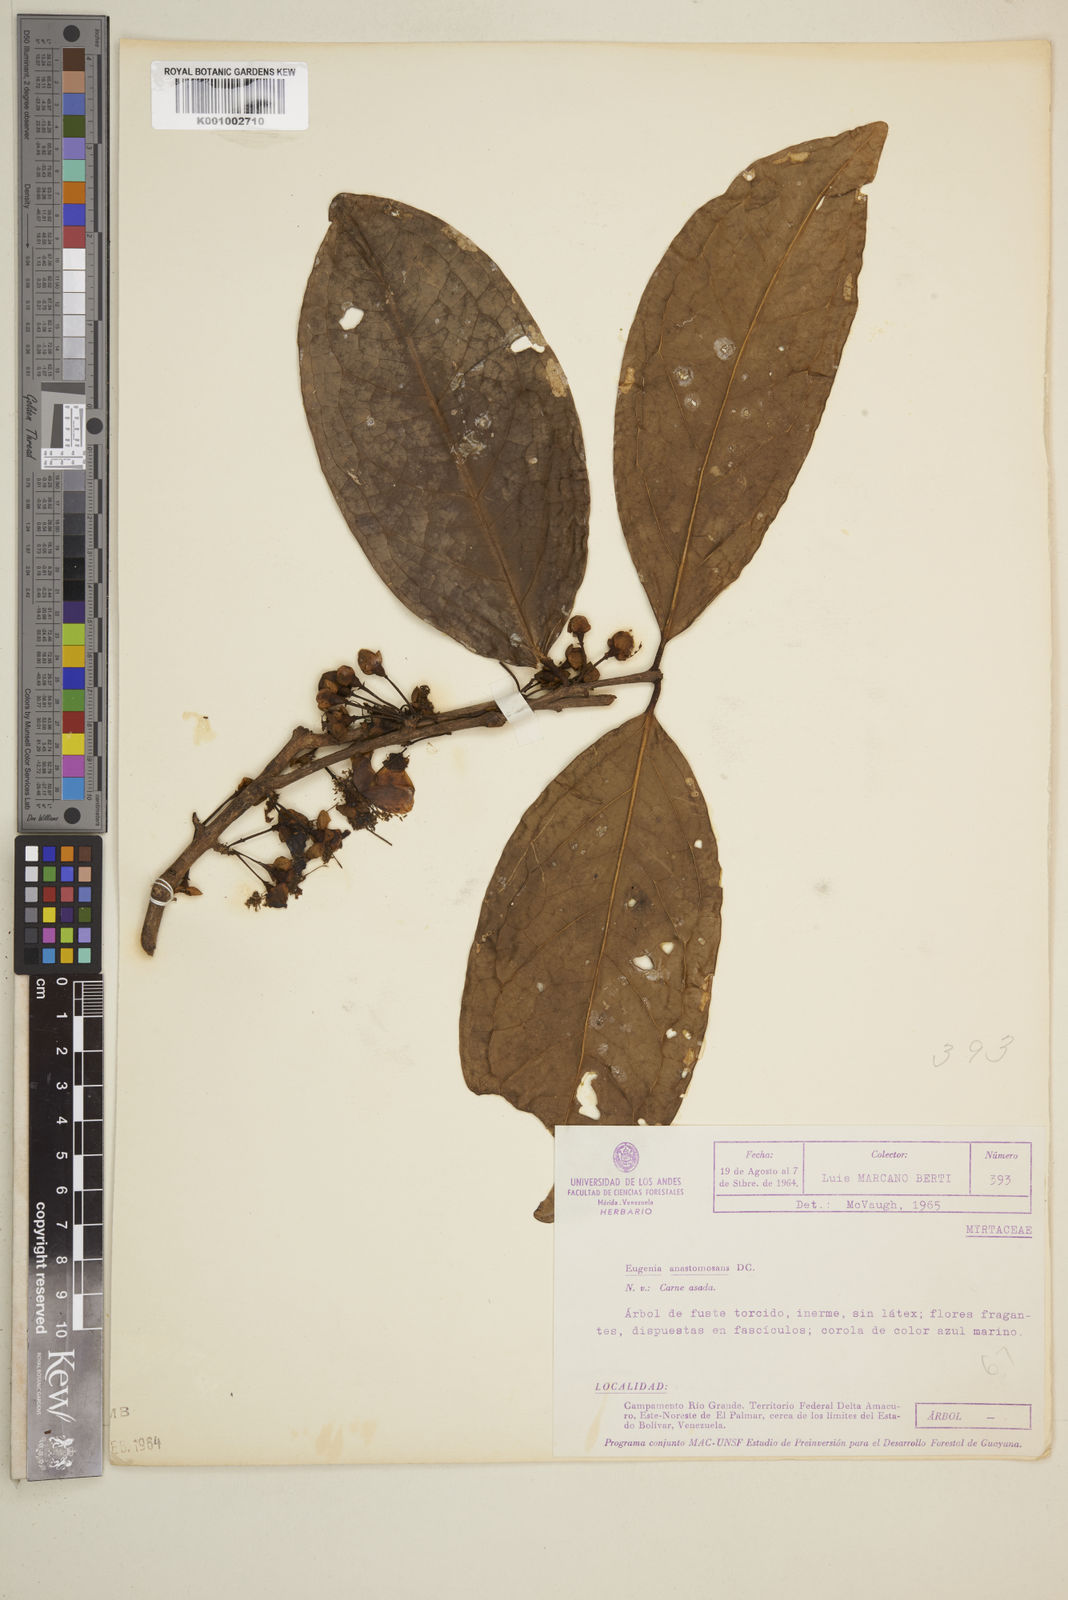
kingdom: Plantae
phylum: Tracheophyta
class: Magnoliopsida
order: Myrtales
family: Myrtaceae
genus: Eugenia
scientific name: Eugenia anastomosans
